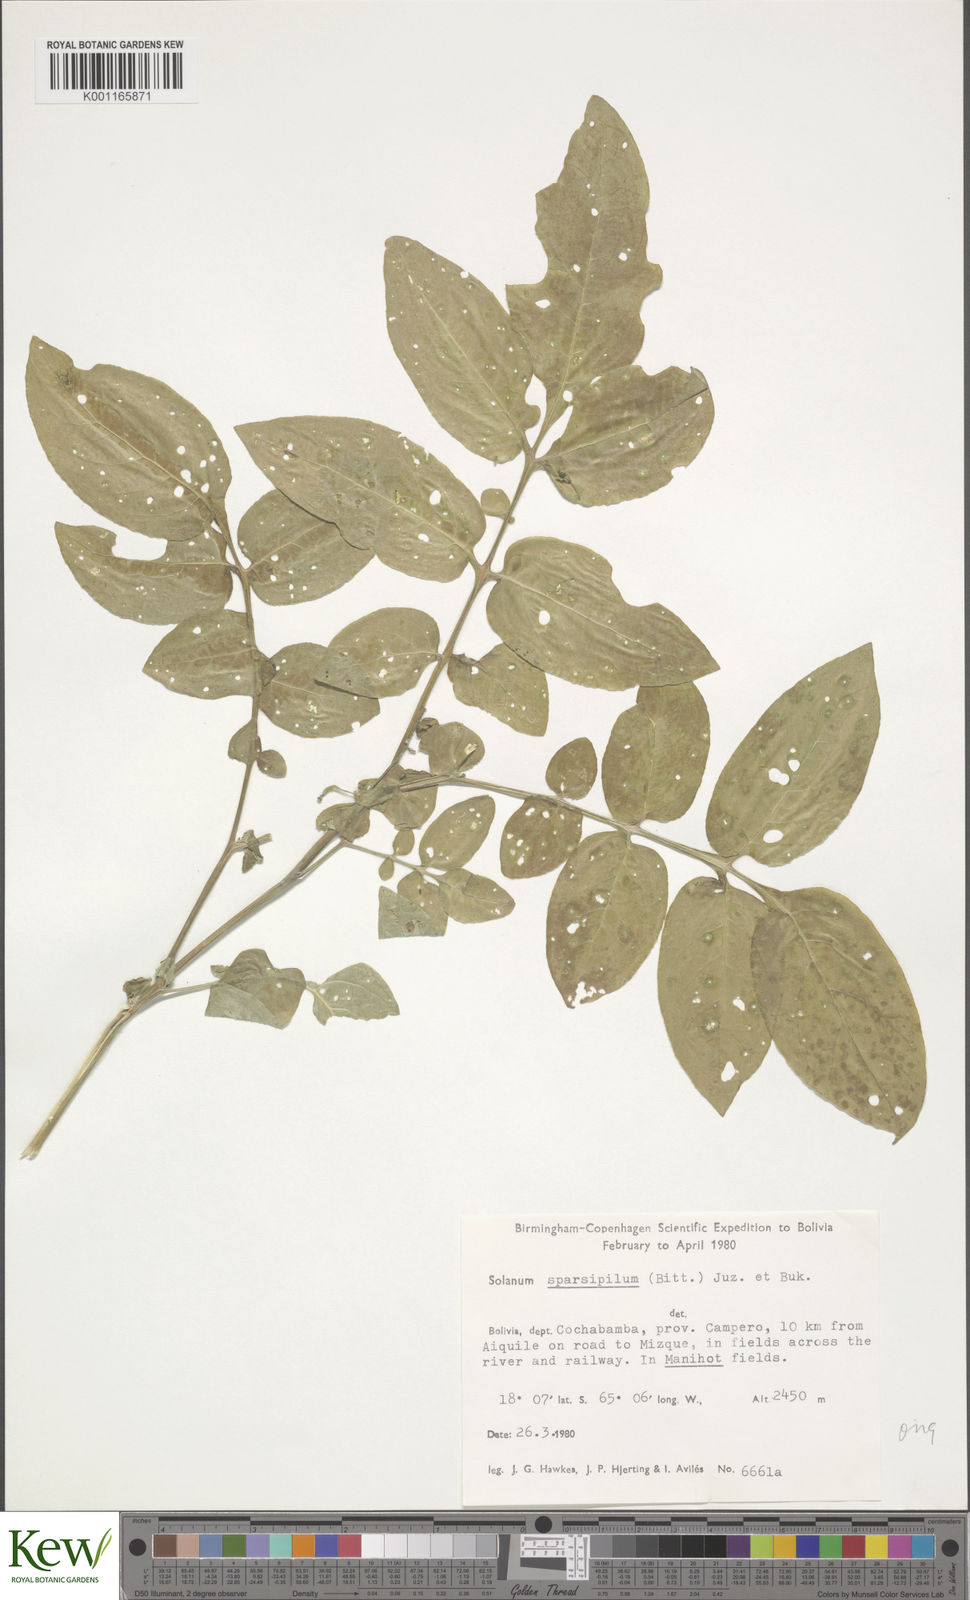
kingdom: Plantae
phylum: Tracheophyta
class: Magnoliopsida
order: Solanales
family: Solanaceae
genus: Solanum
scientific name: Solanum brevicaule
